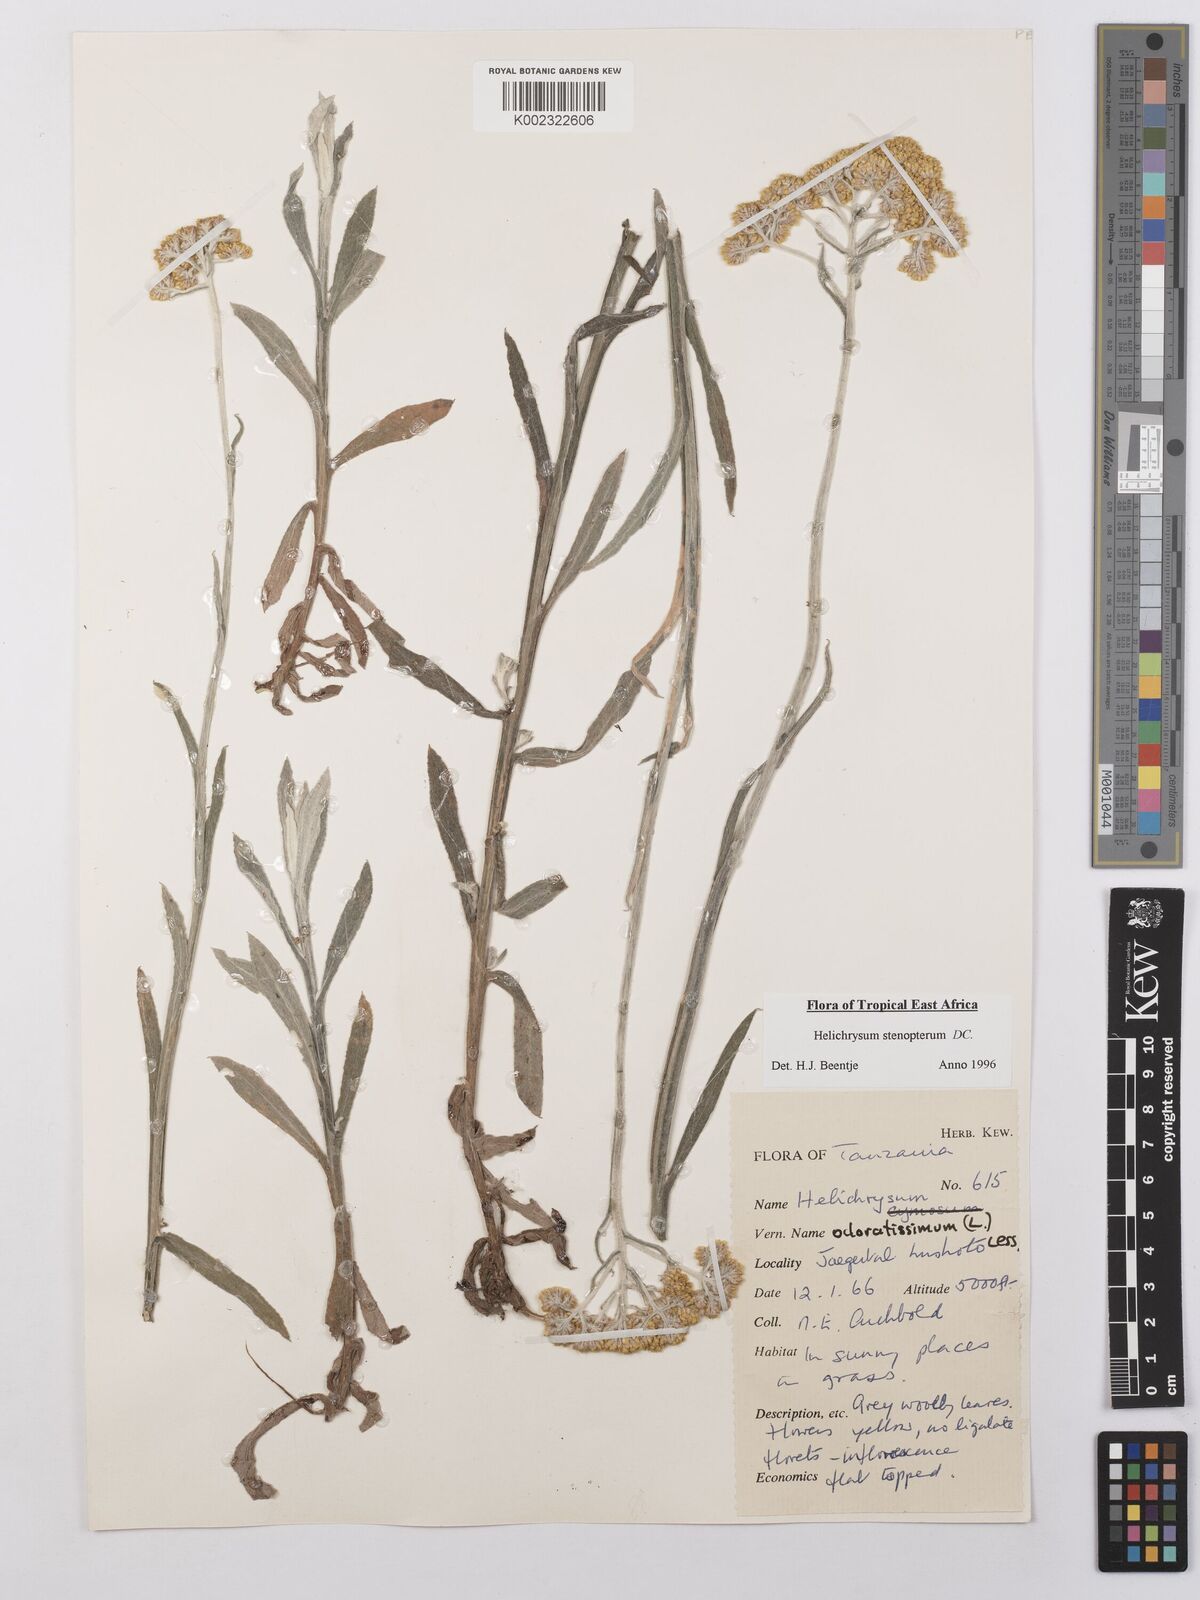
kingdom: Plantae
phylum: Tracheophyta
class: Magnoliopsida
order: Asterales
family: Asteraceae
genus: Helichrysum
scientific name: Helichrysum stenopterum
